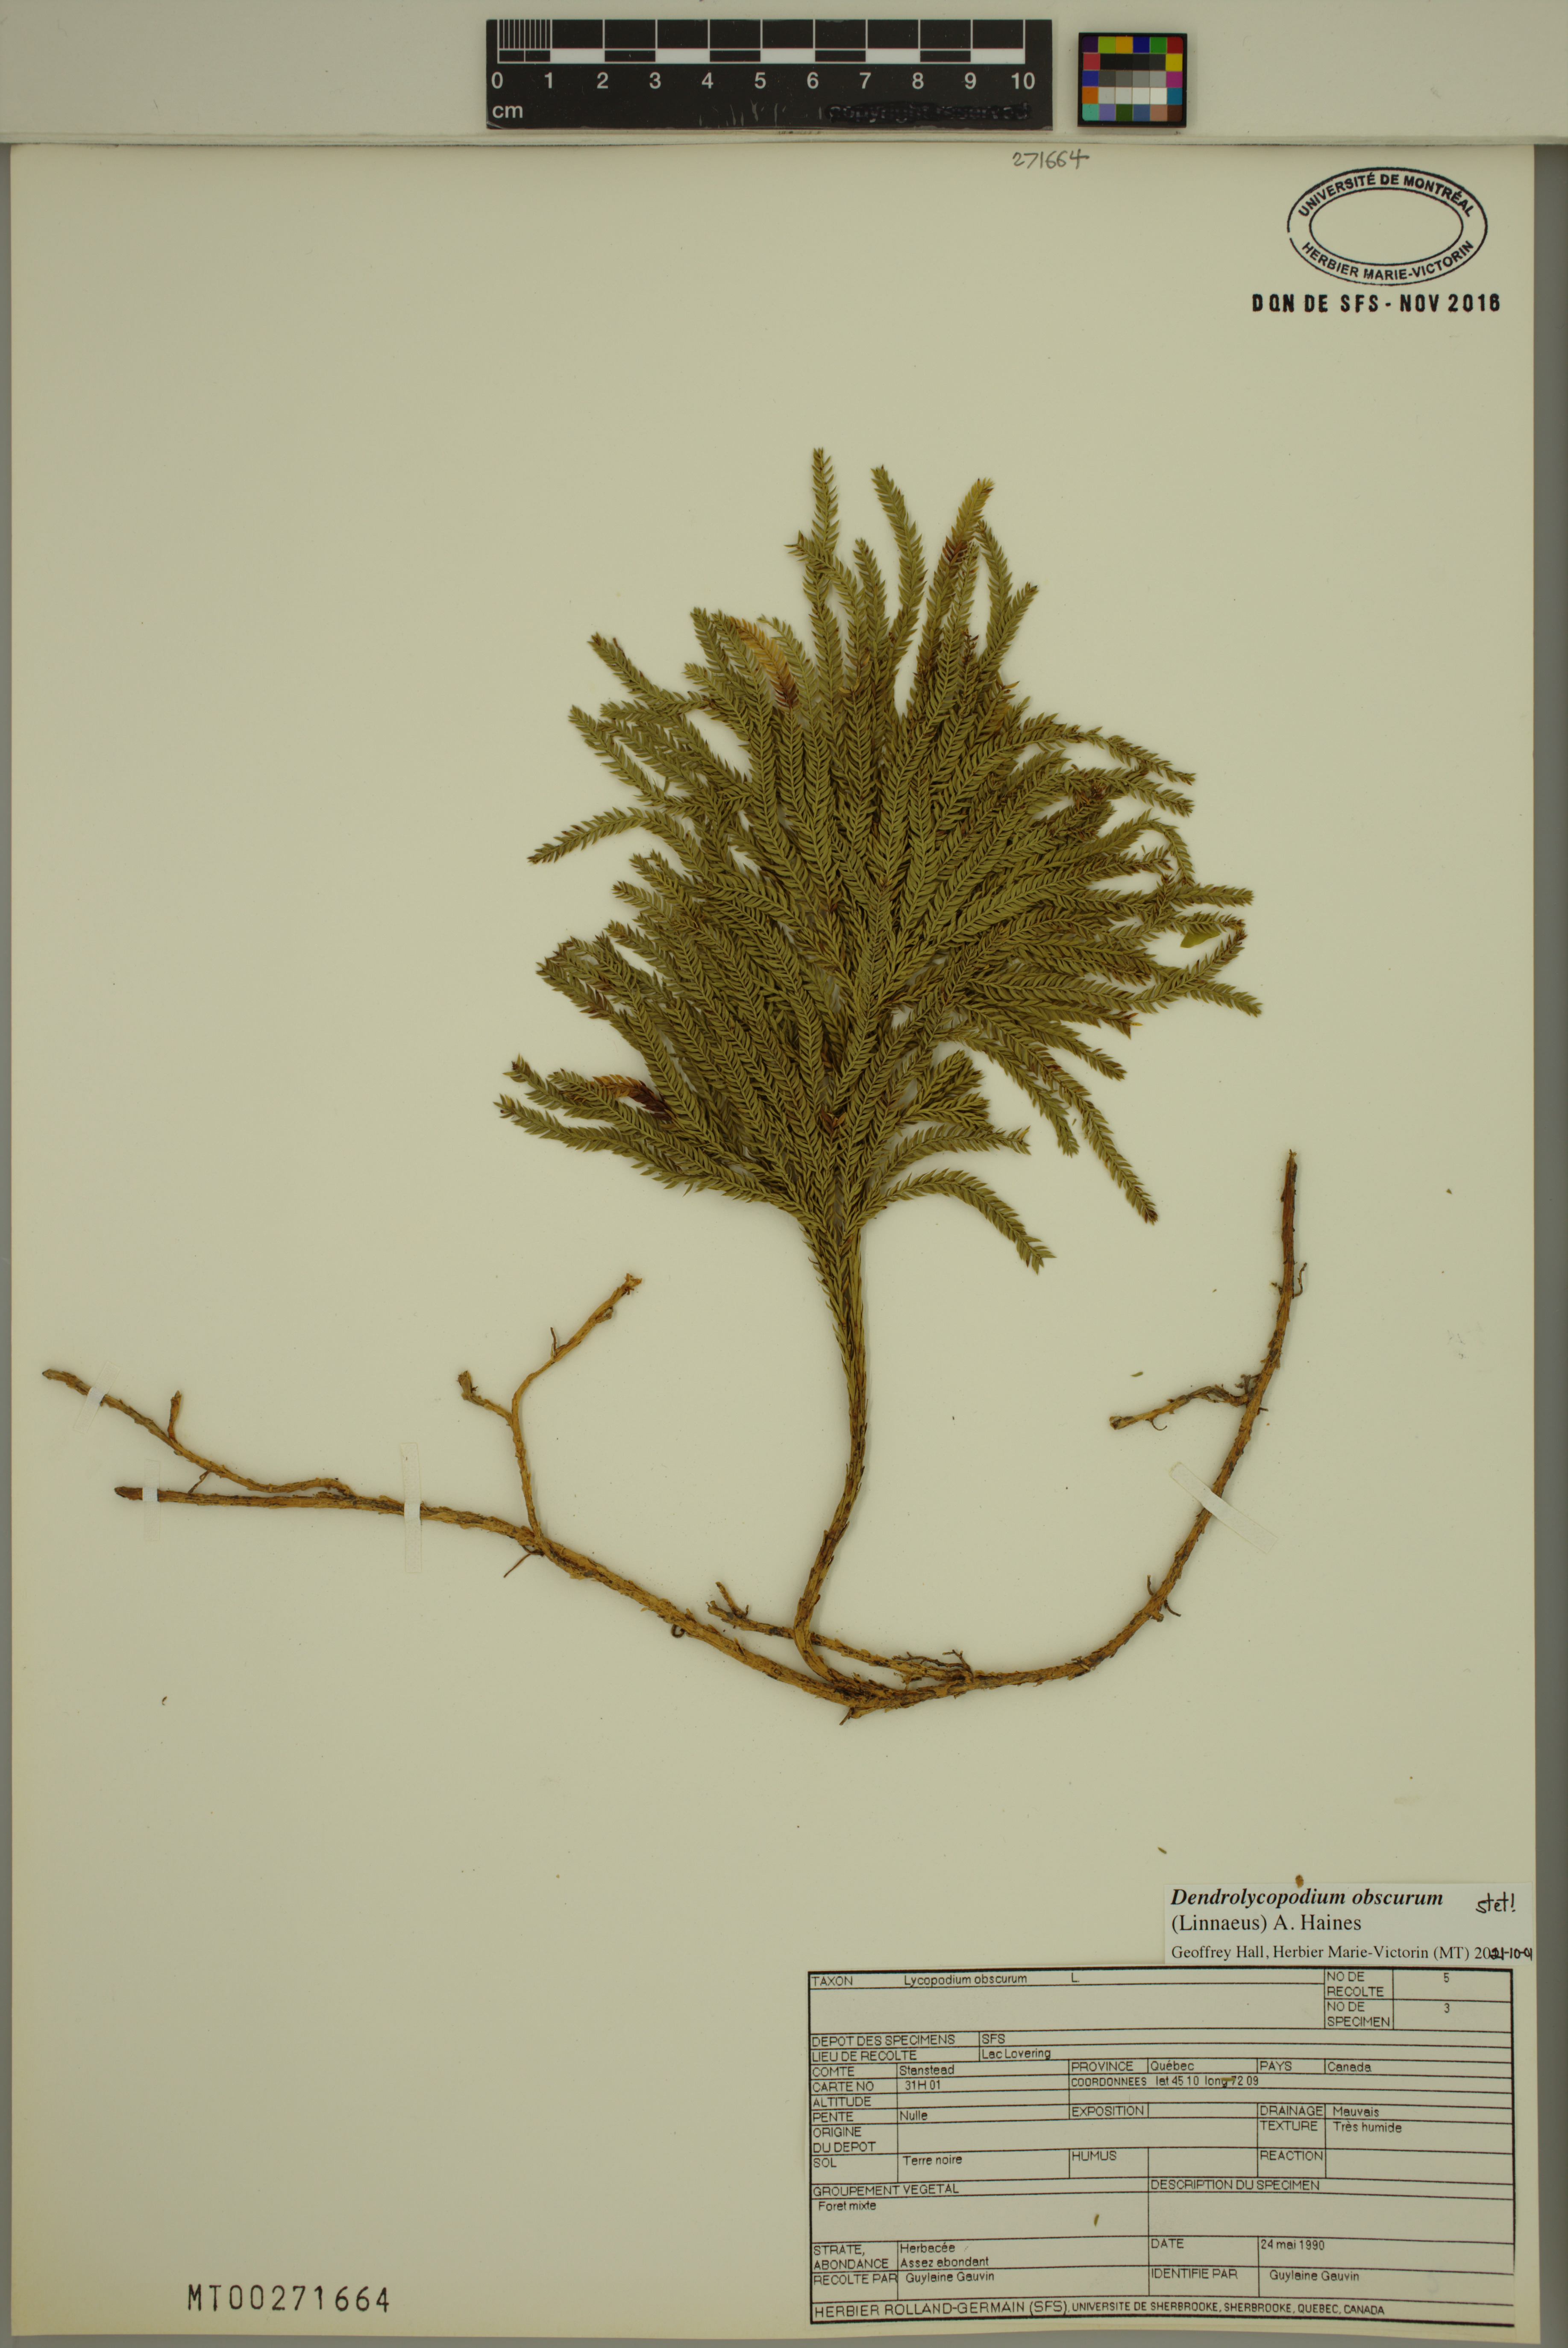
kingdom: Plantae
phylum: Tracheophyta
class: Lycopodiopsida
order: Lycopodiales
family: Lycopodiaceae
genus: Dendrolycopodium
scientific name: Dendrolycopodium obscurum
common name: Common ground-pine
